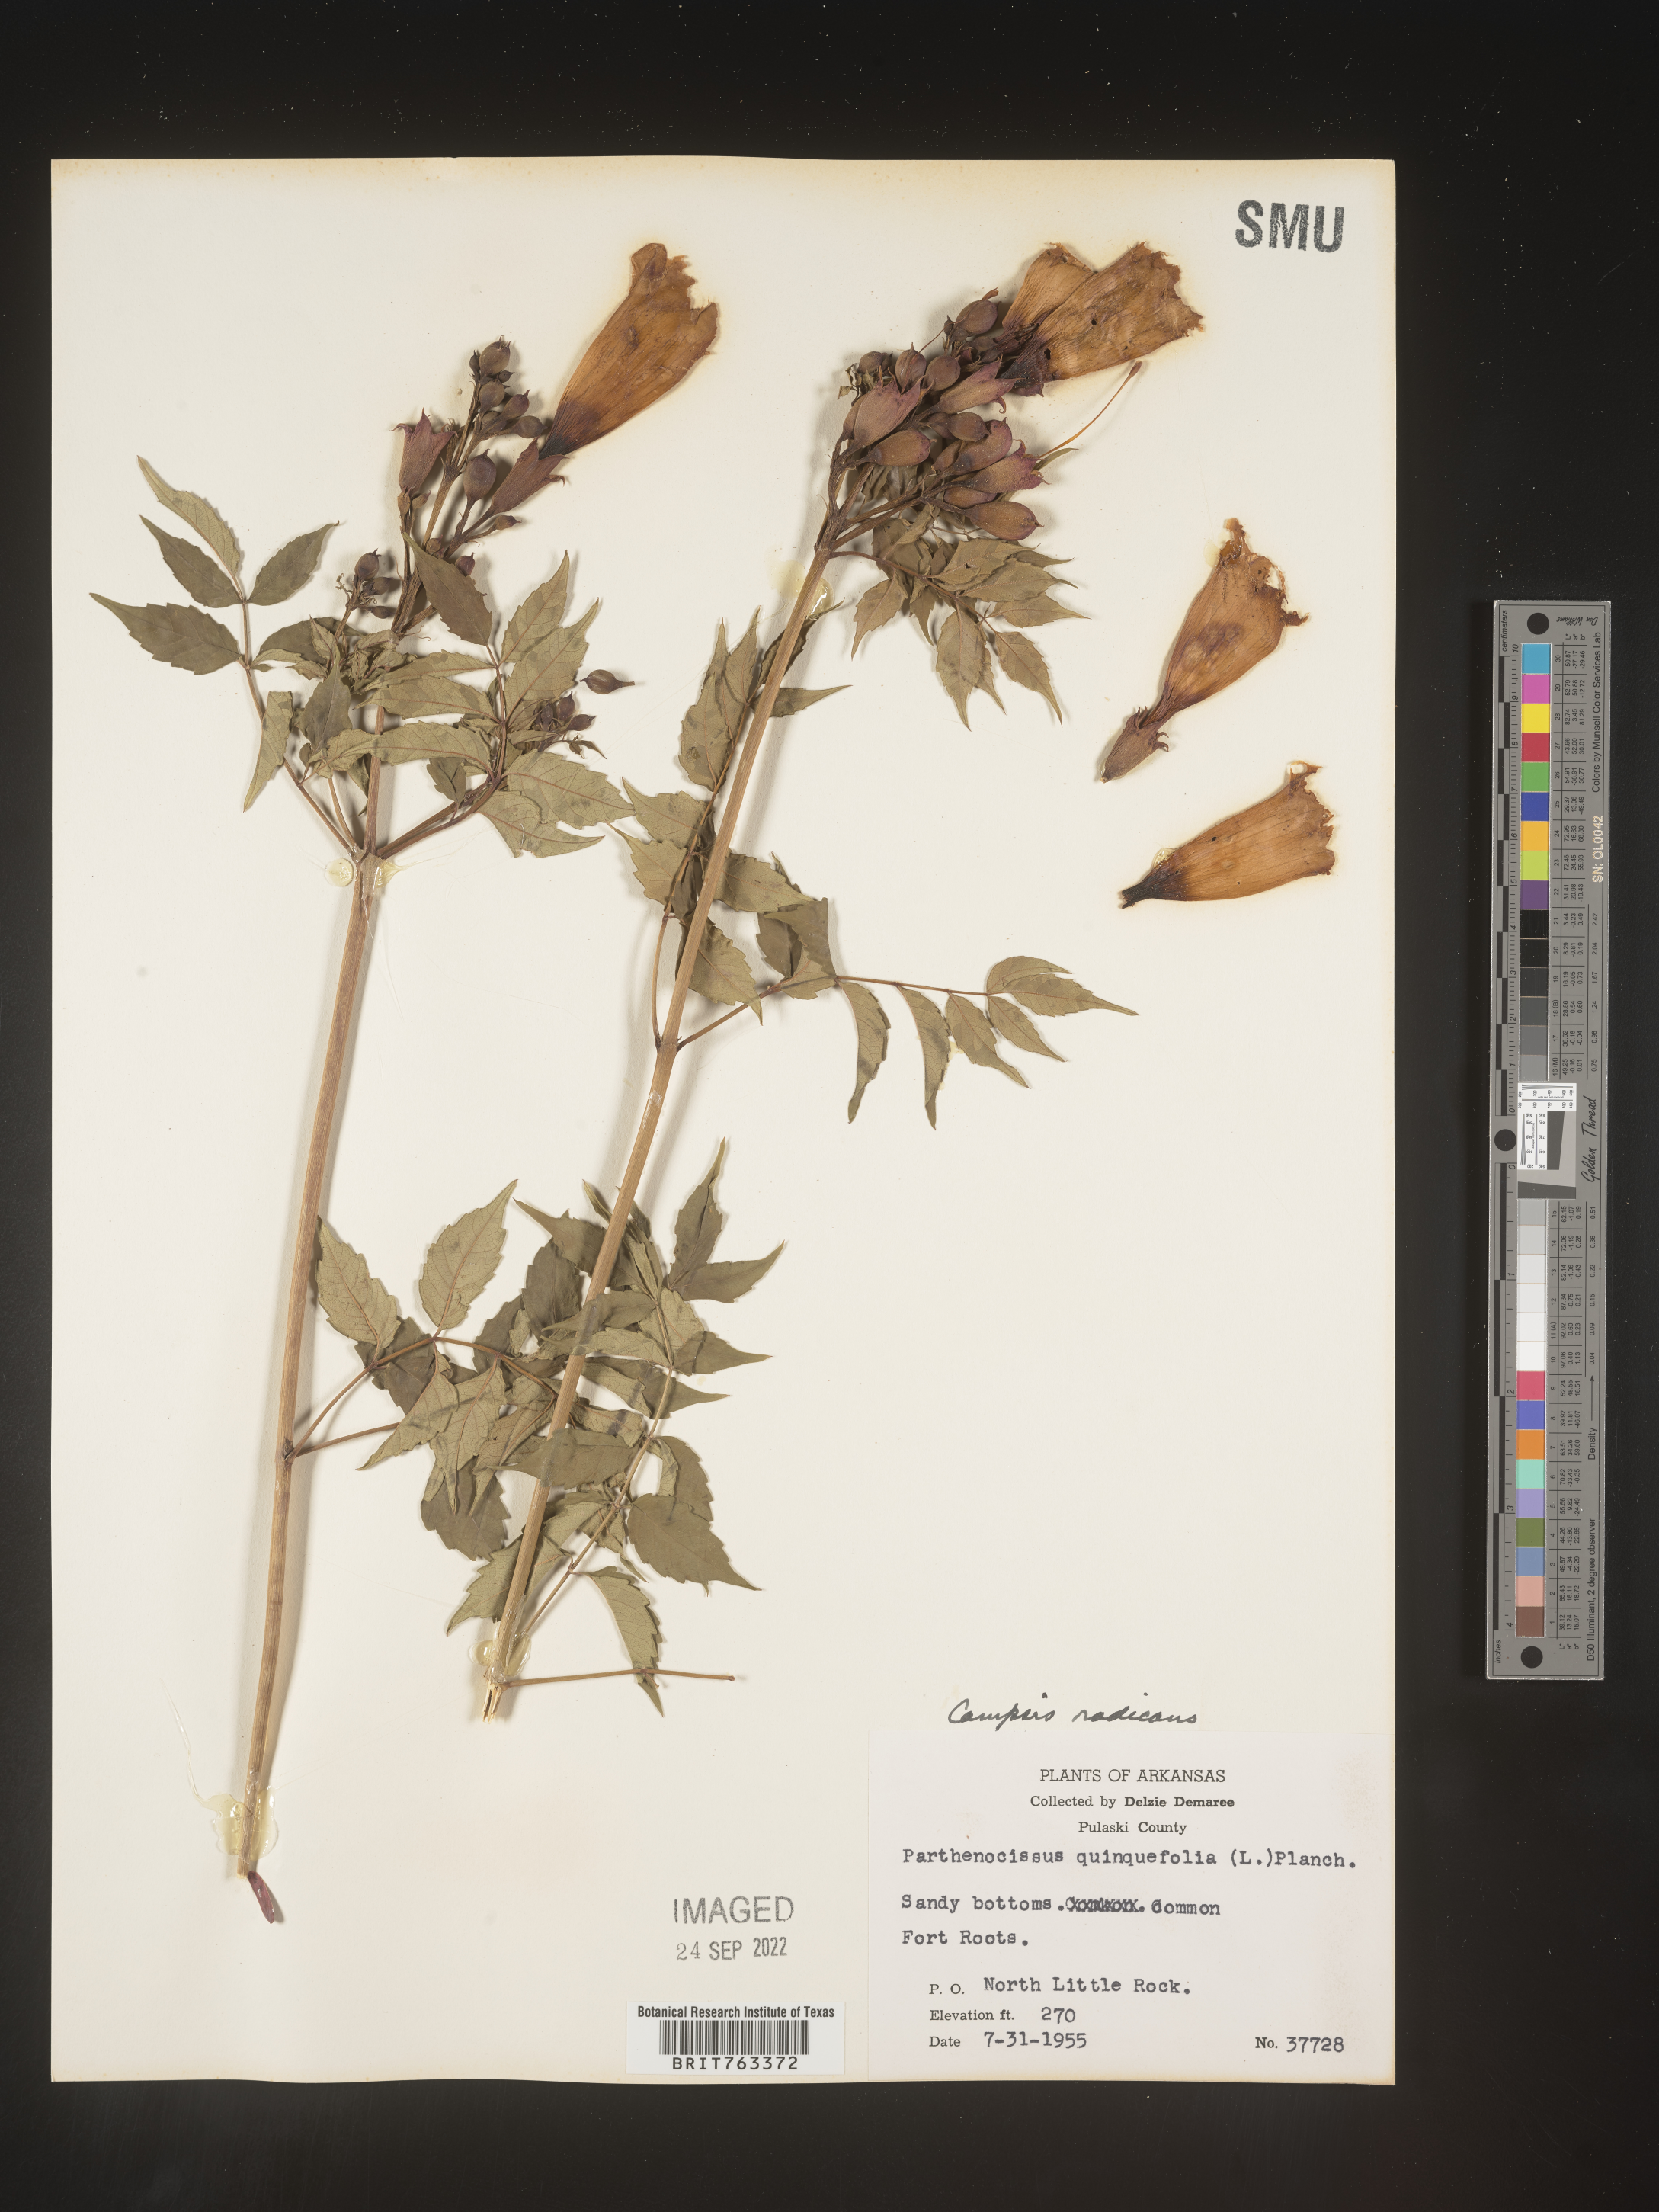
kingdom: Plantae
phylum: Tracheophyta
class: Magnoliopsida
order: Lamiales
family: Bignoniaceae
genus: Campsis
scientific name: Campsis radicans
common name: Trumpet-creeper
